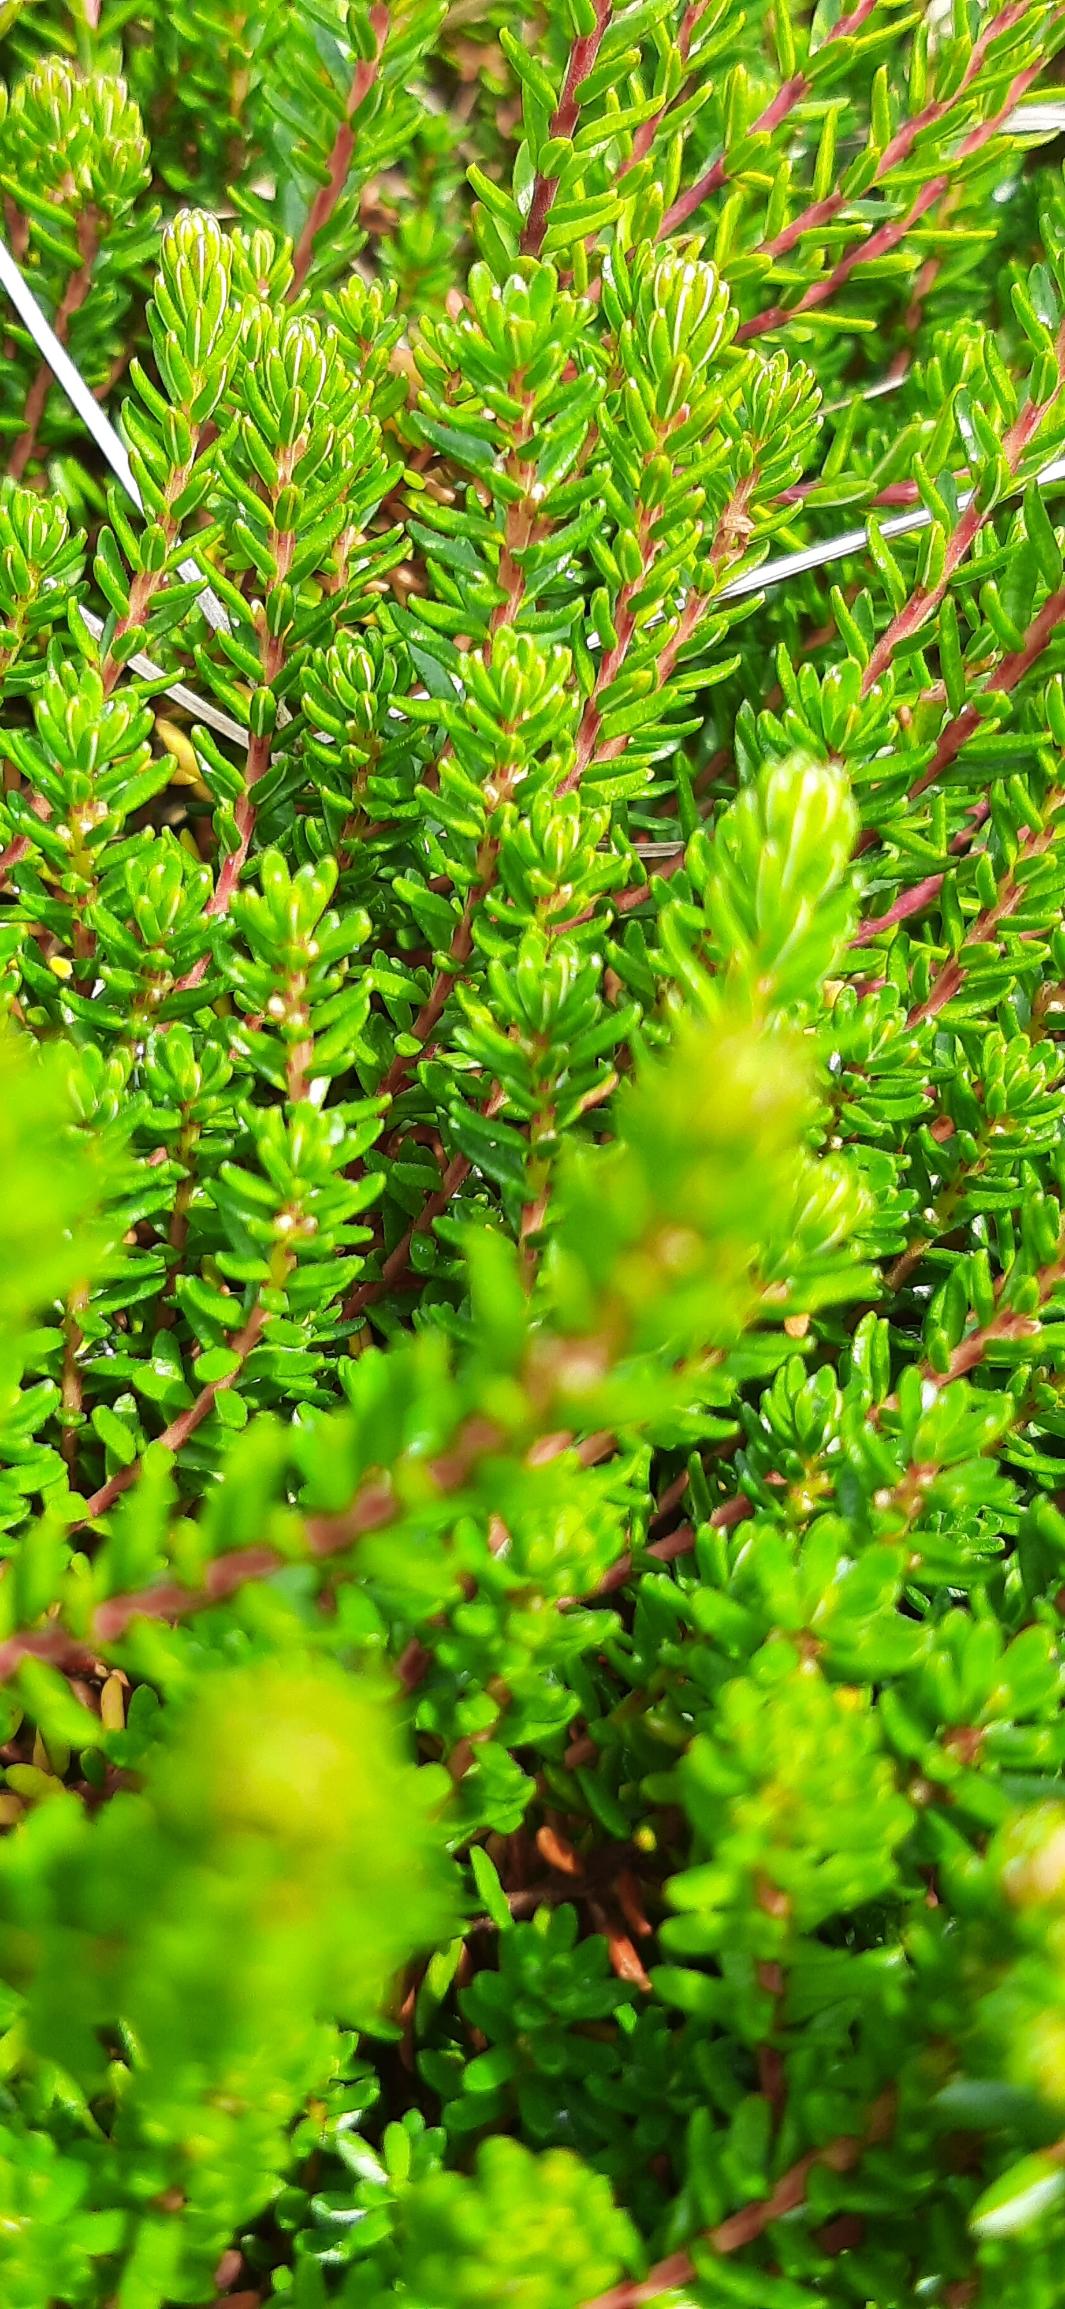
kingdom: Plantae
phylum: Tracheophyta
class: Magnoliopsida
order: Ericales
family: Ericaceae
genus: Empetrum
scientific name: Empetrum nigrum
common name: Revling
